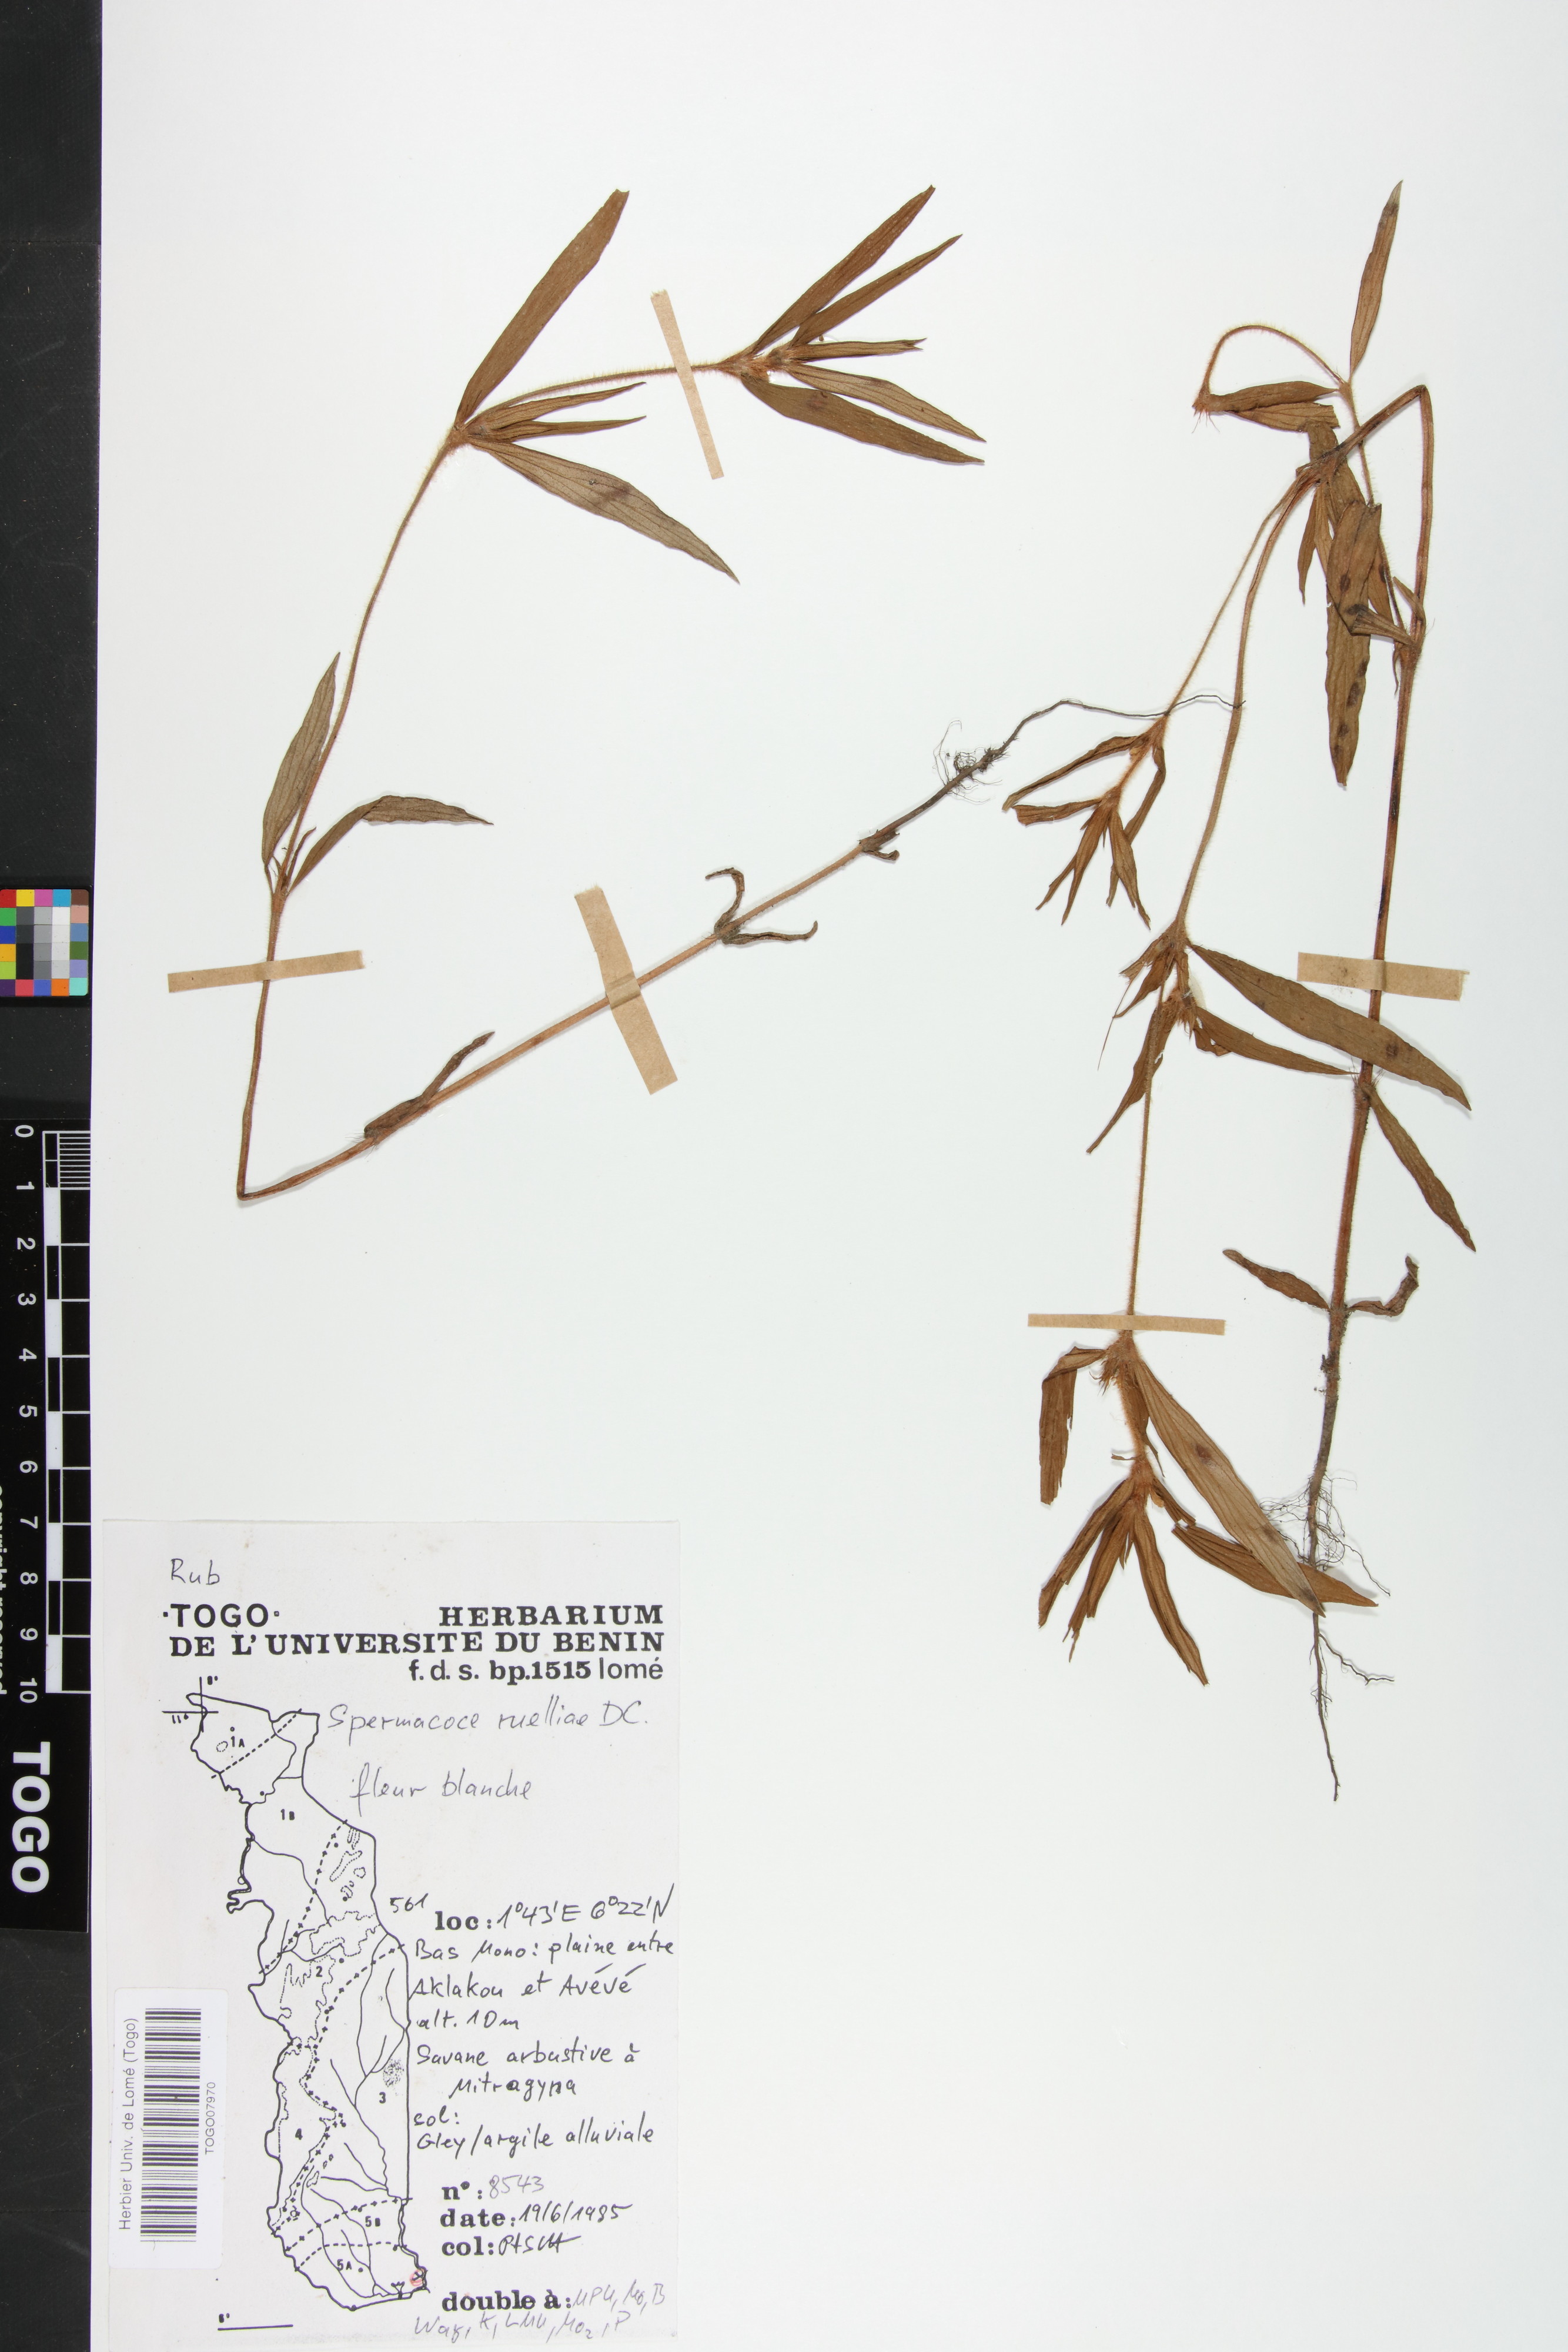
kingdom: Plantae
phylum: Tracheophyta
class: Magnoliopsida
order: Gentianales
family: Rubiaceae
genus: Spermacoce
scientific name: Spermacoce ruelliae
